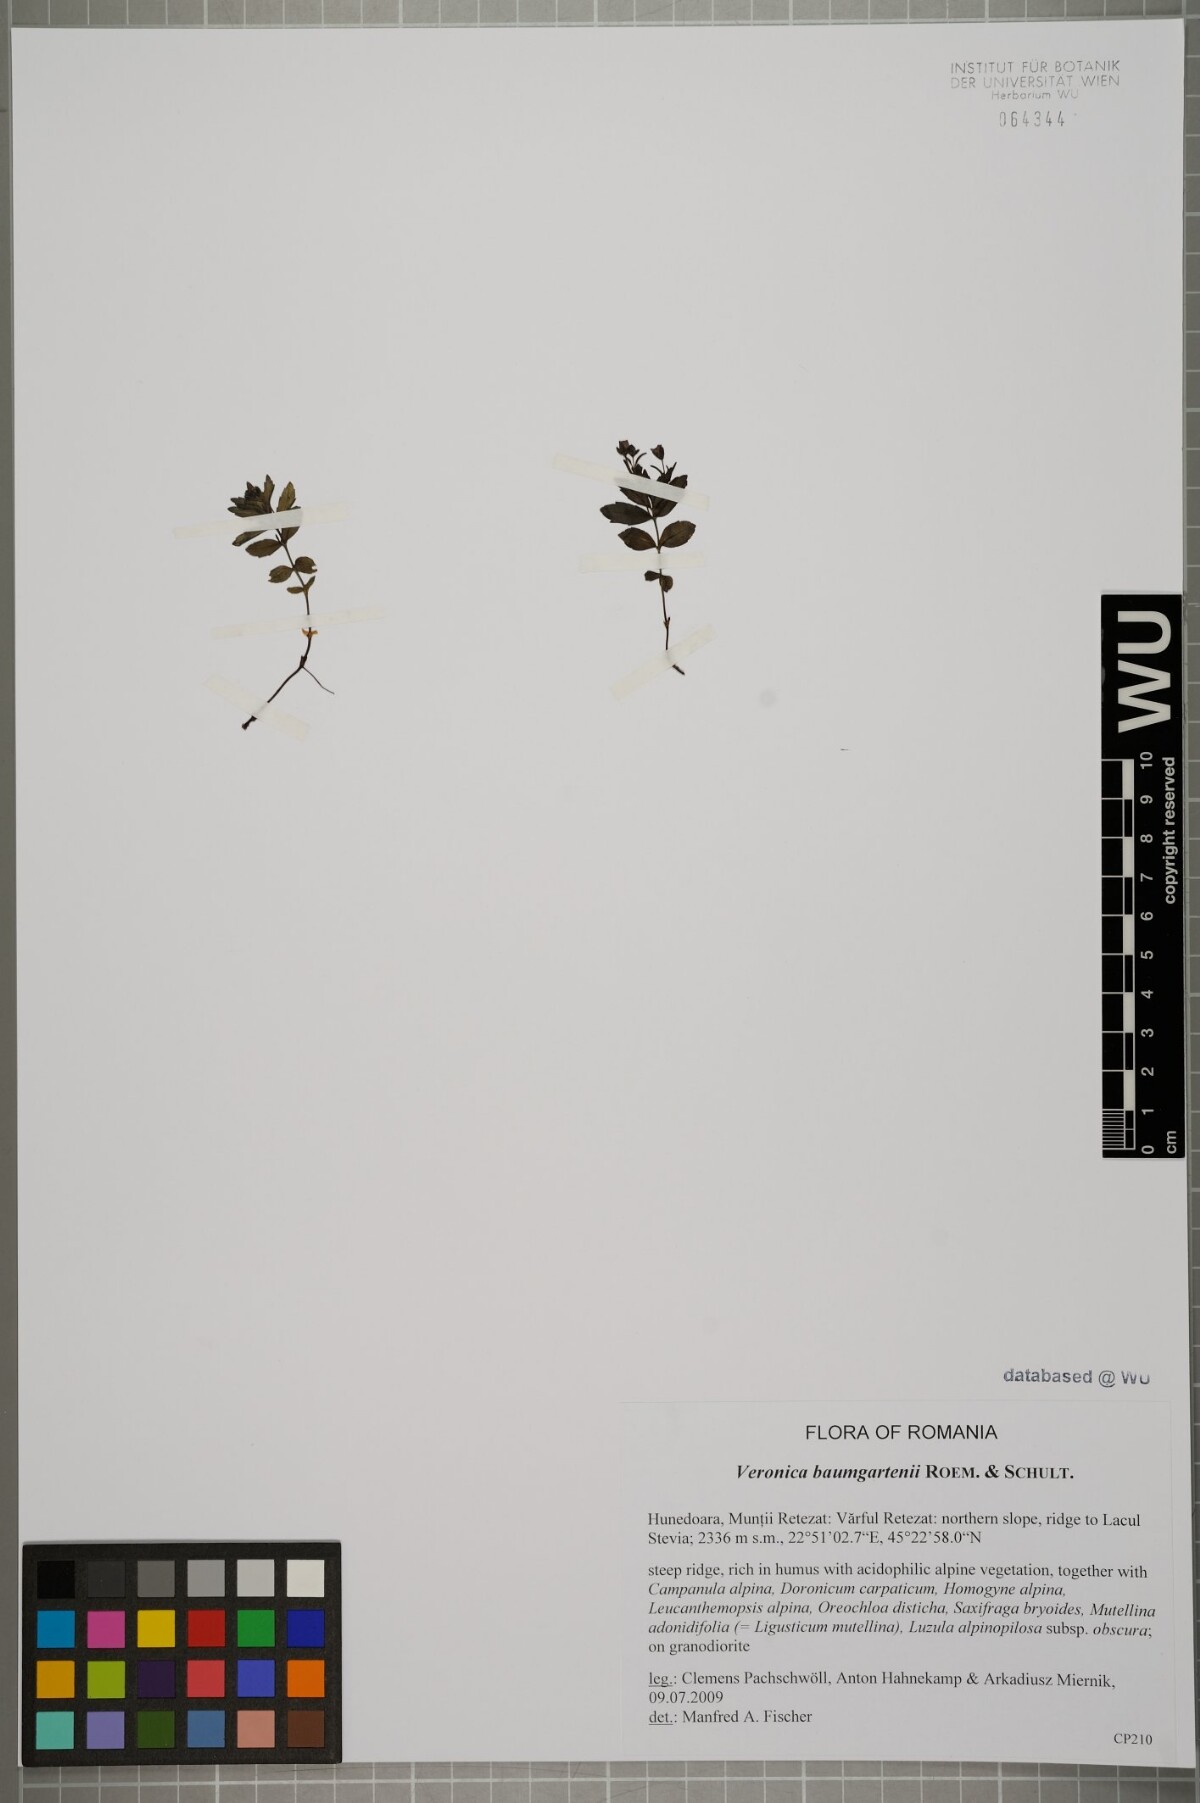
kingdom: Plantae
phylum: Tracheophyta
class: Magnoliopsida
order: Lamiales
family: Plantaginaceae
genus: Veronica
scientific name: Veronica baumgartenii
